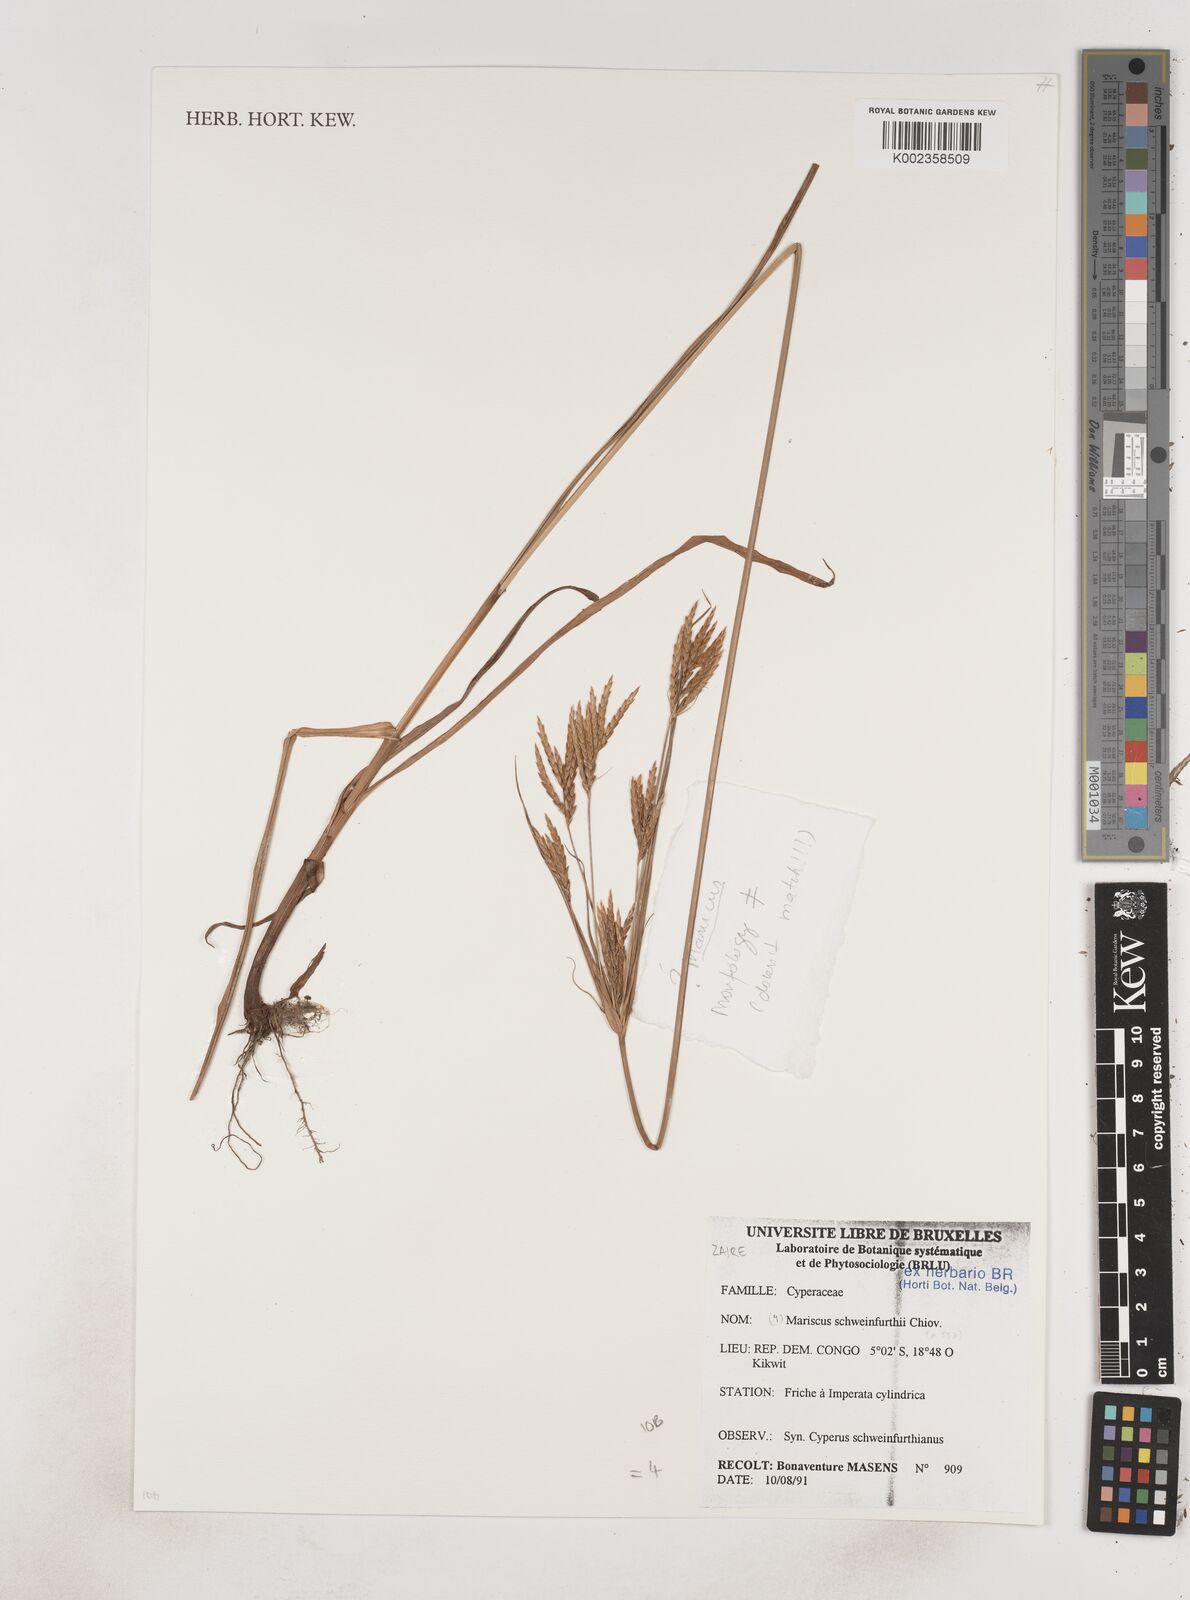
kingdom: Plantae
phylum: Tracheophyta
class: Liliopsida
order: Poales
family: Cyperaceae
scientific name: Cyperaceae
